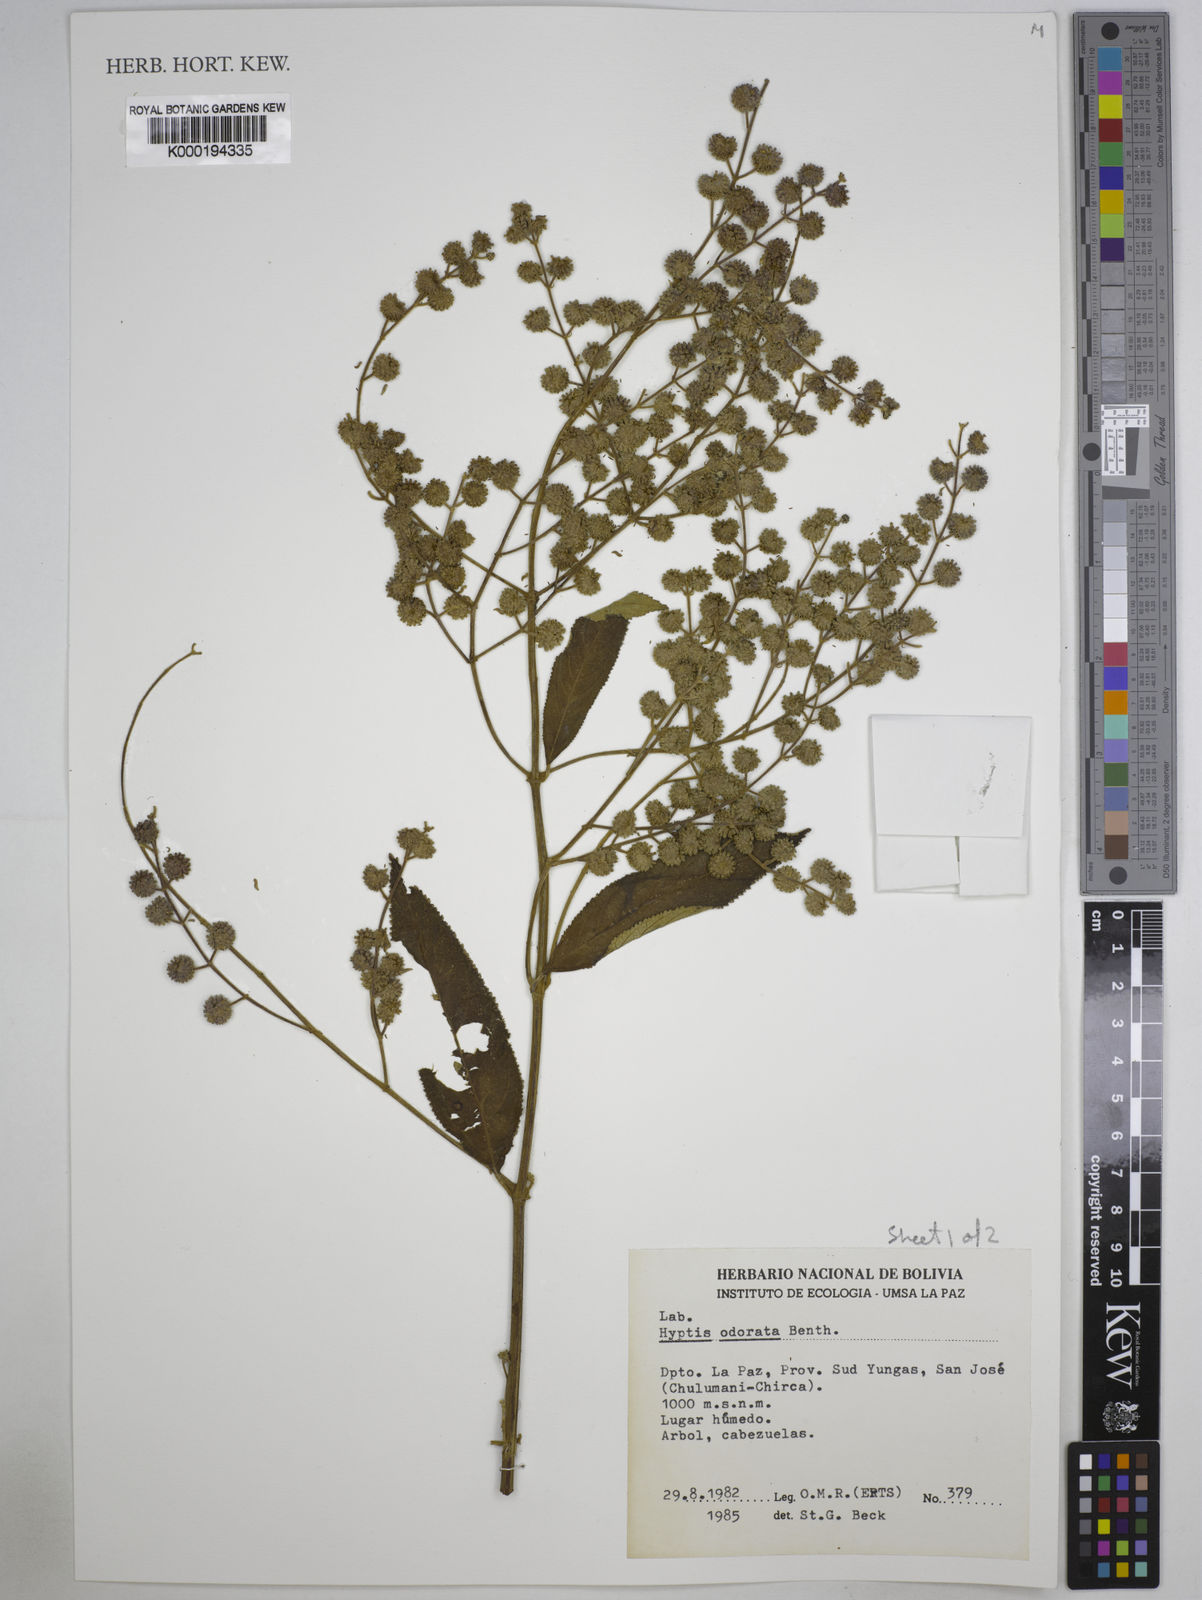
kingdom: Plantae
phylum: Tracheophyta
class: Magnoliopsida
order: Lamiales
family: Lamiaceae
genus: Hyptis
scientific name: Hyptis odorata
